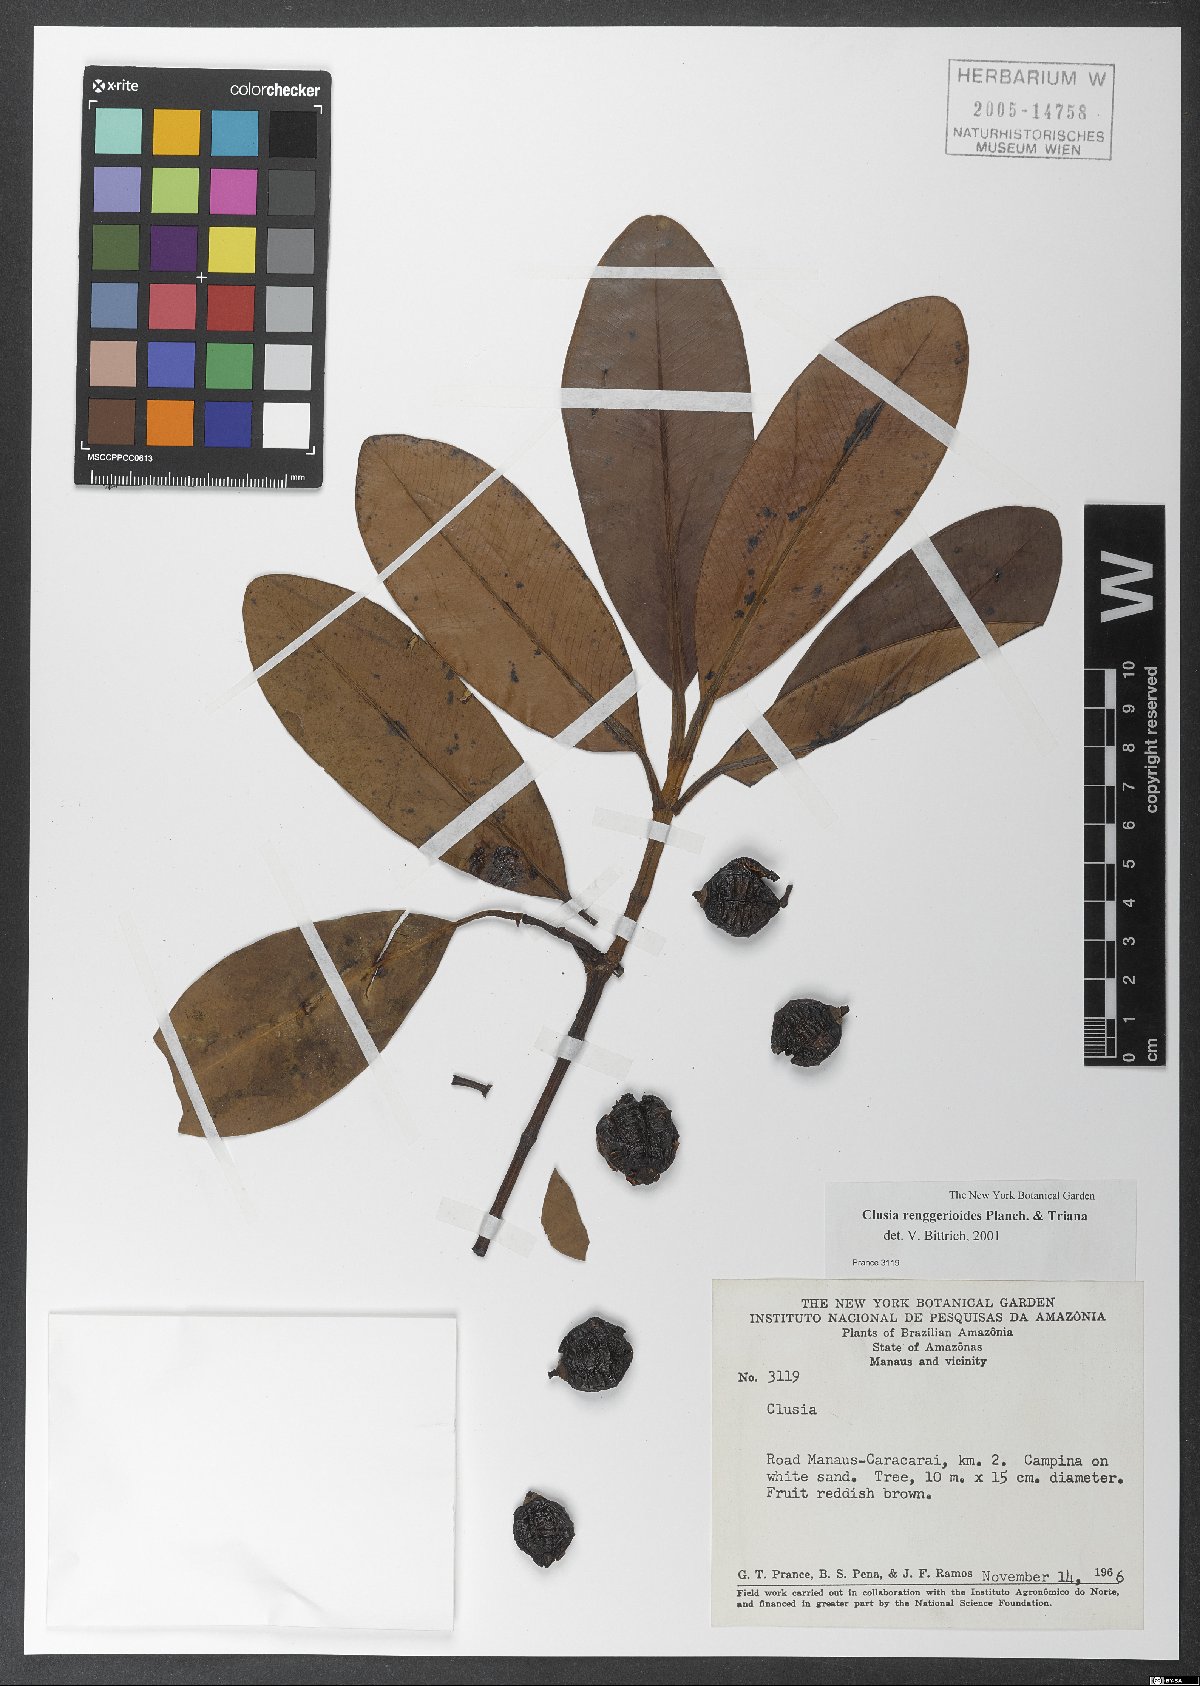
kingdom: Plantae
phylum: Tracheophyta
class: Magnoliopsida
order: Malpighiales
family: Clusiaceae
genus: Clusia
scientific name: Clusia renggerioides
